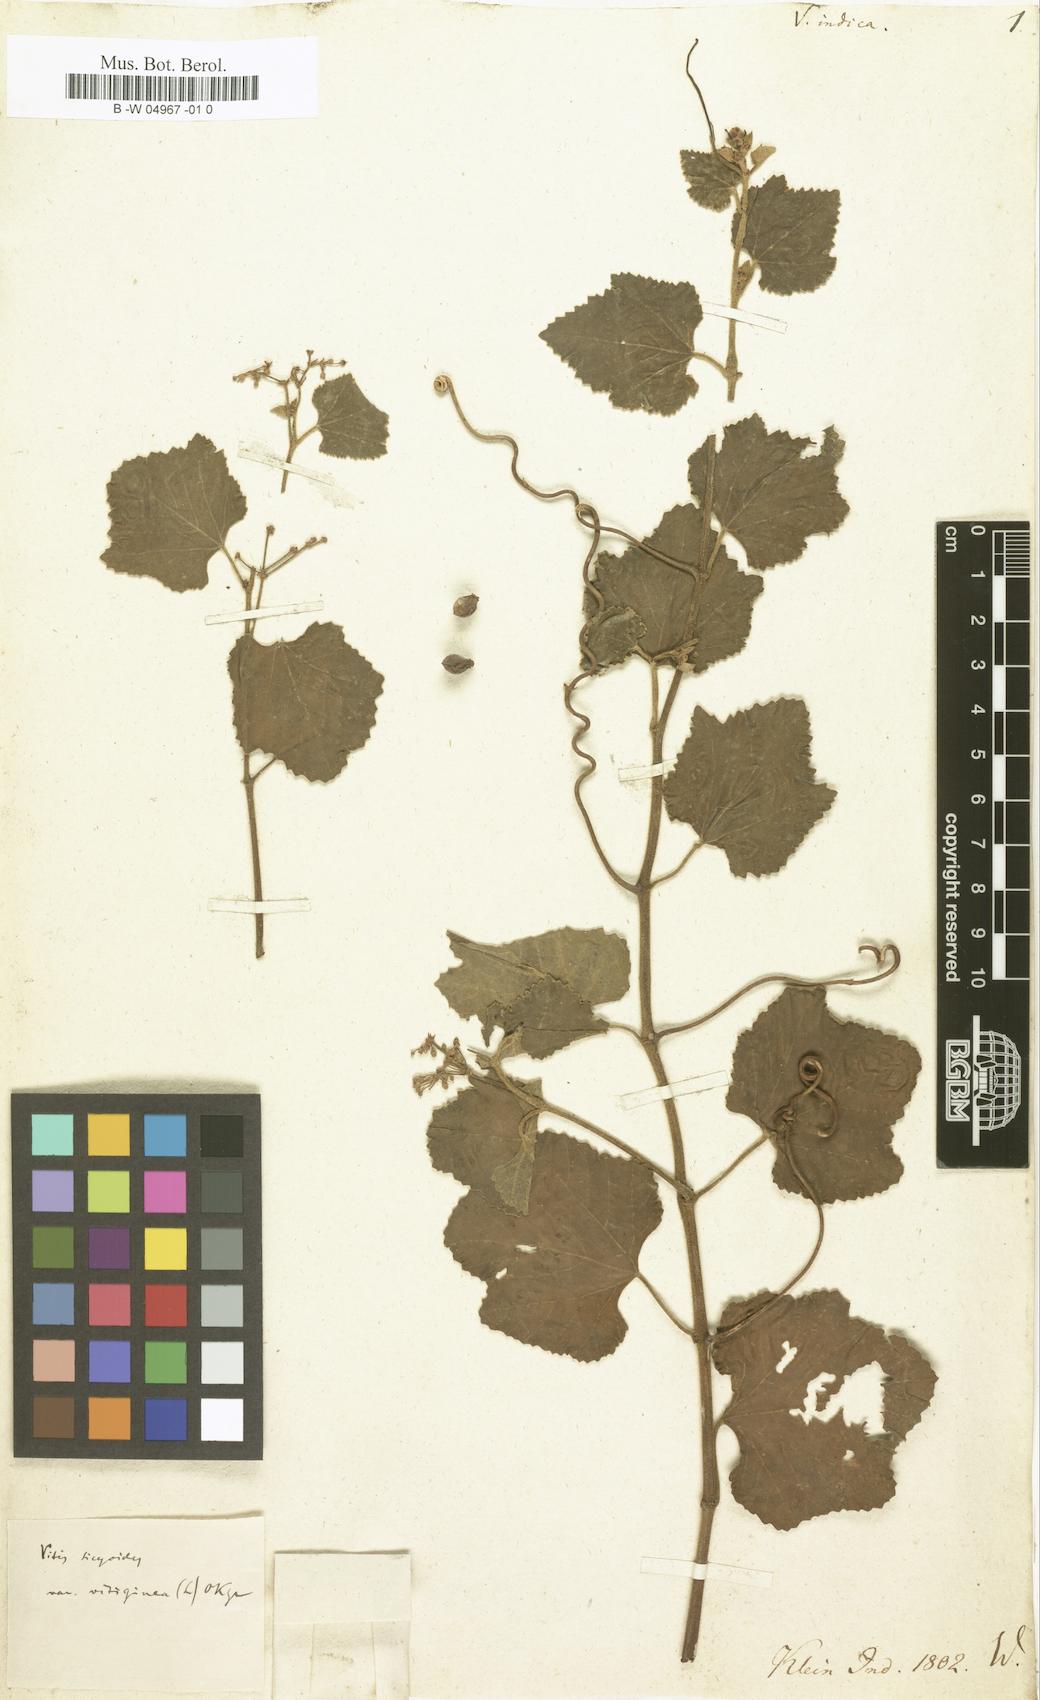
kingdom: Plantae
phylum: Tracheophyta
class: Magnoliopsida
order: Vitales
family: Vitaceae
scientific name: Vitaceae
